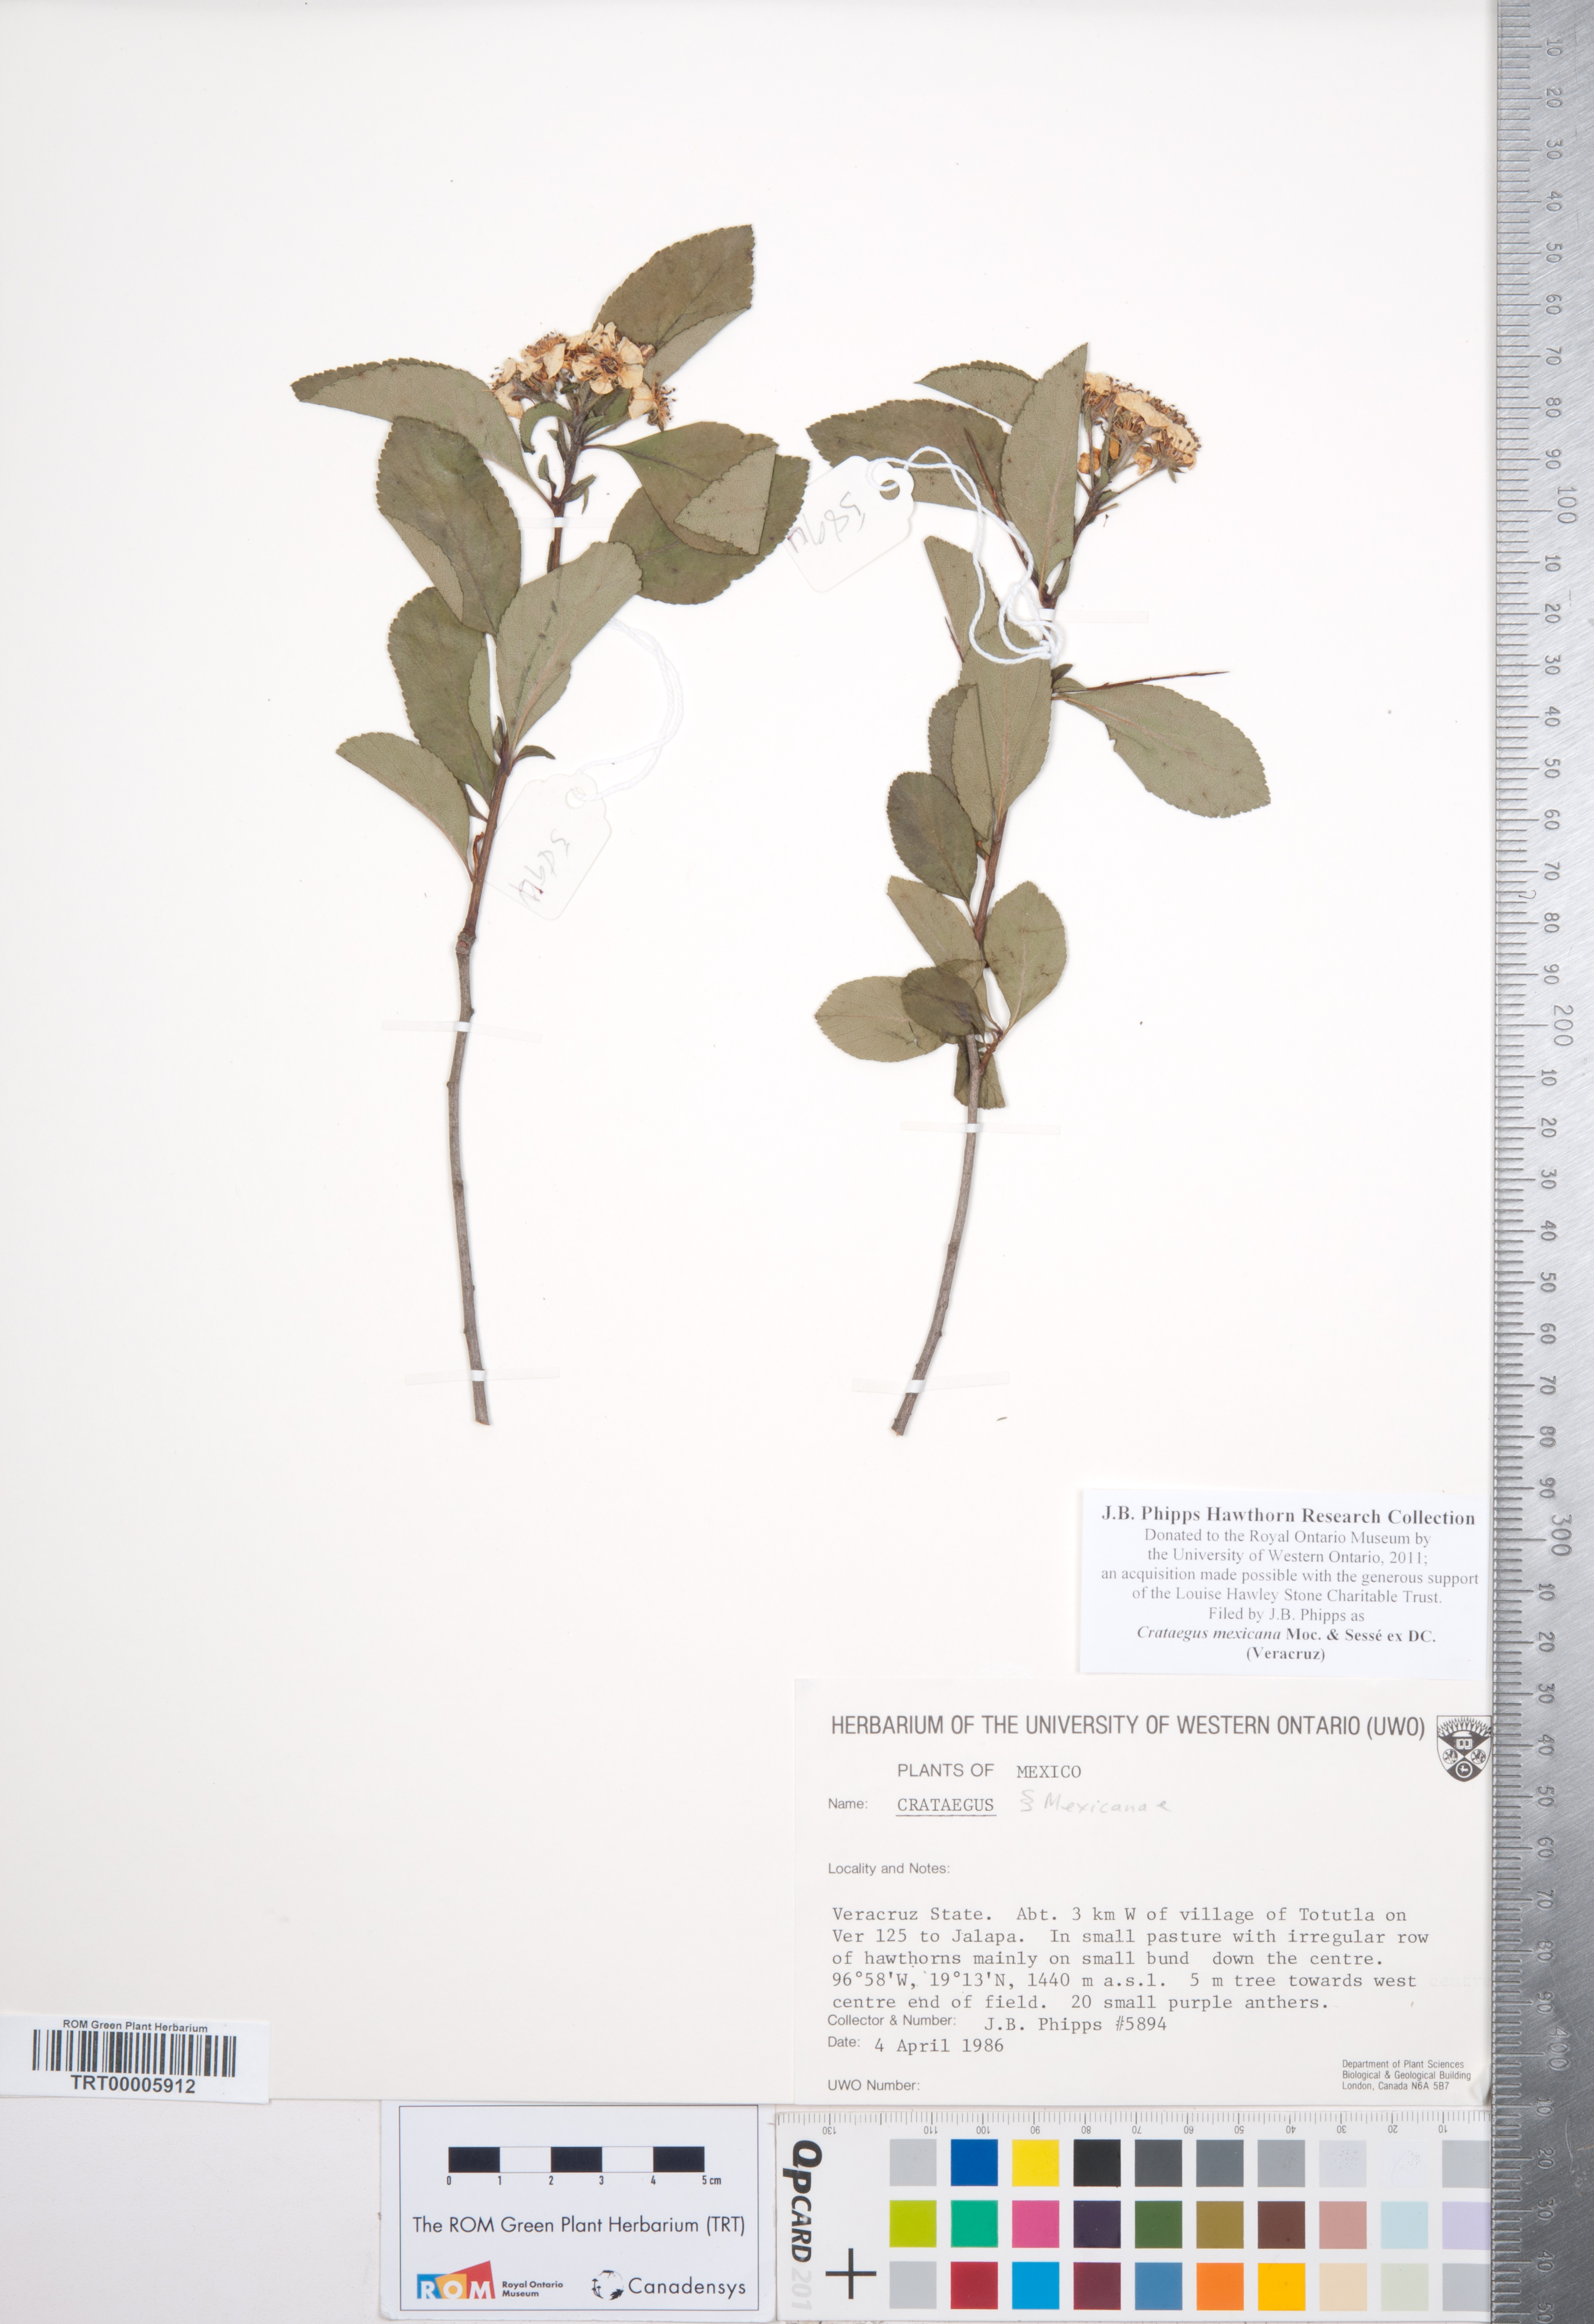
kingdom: Plantae
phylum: Tracheophyta
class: Magnoliopsida
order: Rosales
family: Rosaceae
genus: Crataegus
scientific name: Crataegus mexicana
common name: Mexican hawthorn
